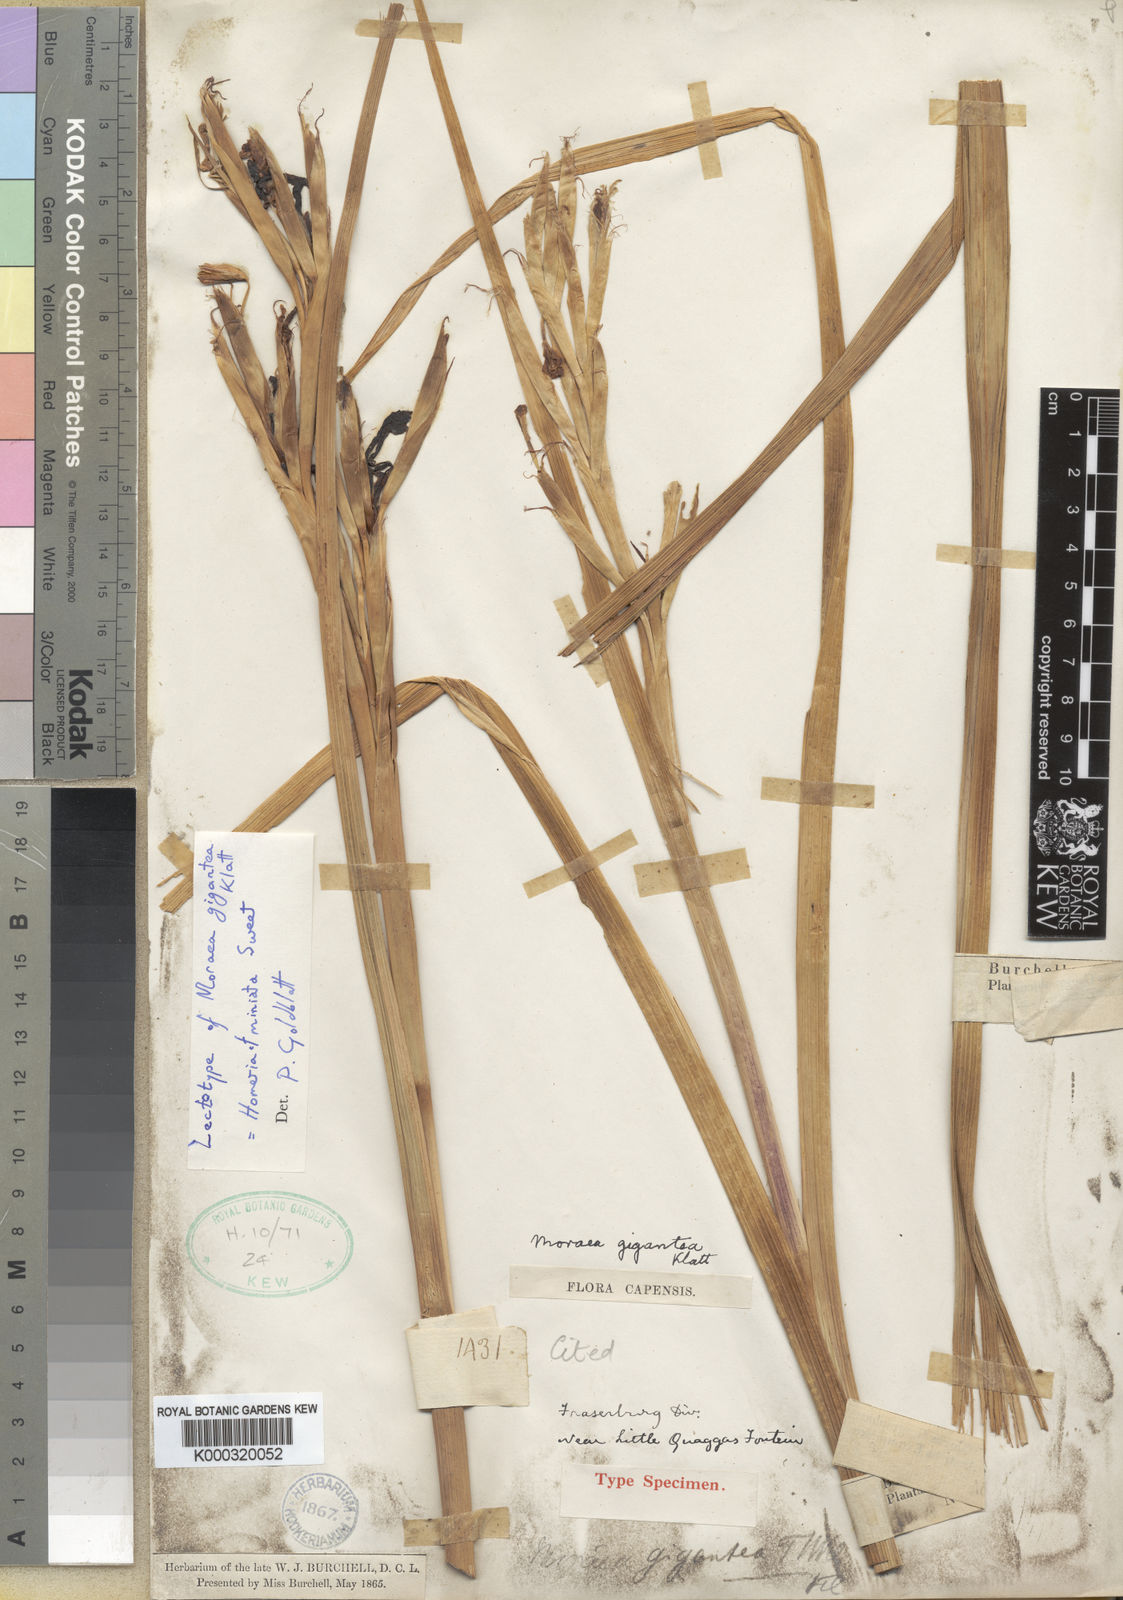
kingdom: Plantae
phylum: Tracheophyta
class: Liliopsida
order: Asparagales
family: Iridaceae
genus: Moraea
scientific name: Moraea miniata
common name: Two-leaf cape-tulip
